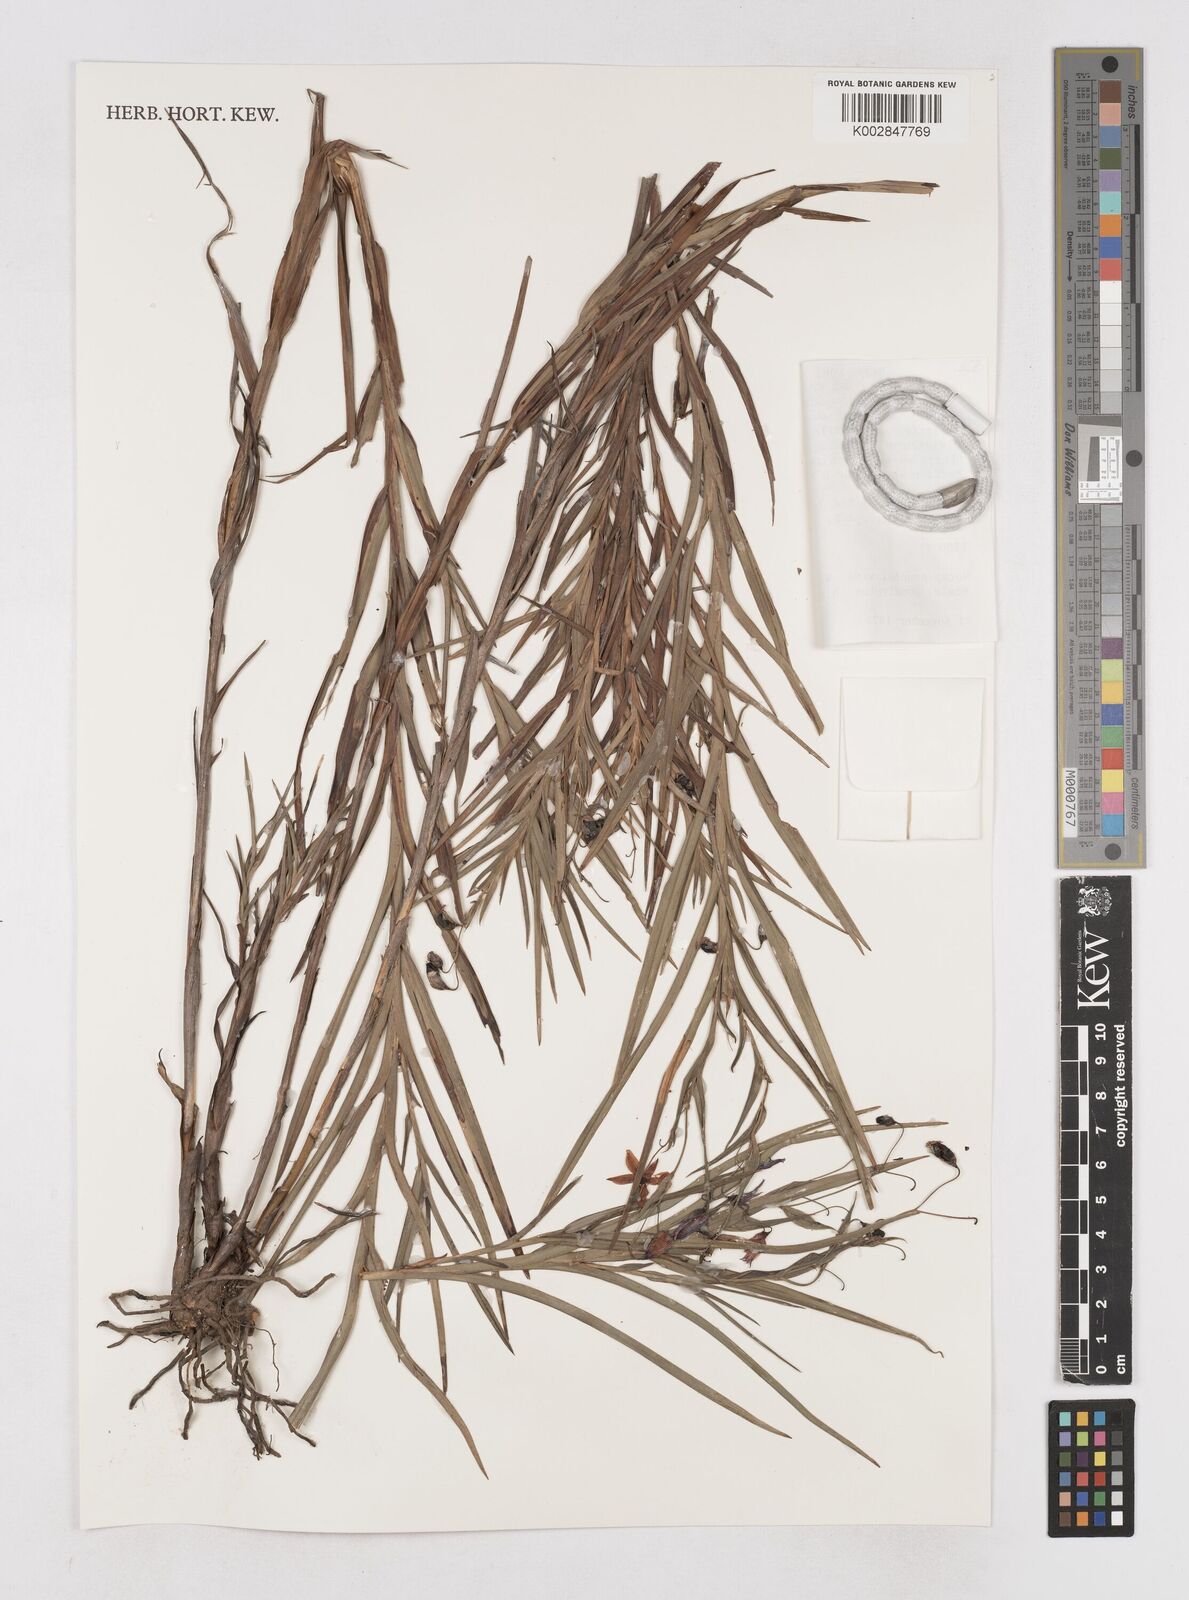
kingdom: Plantae
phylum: Tracheophyta
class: Liliopsida
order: Asparagales
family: Asphodelaceae
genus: Stypandra
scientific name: Stypandra glauca
